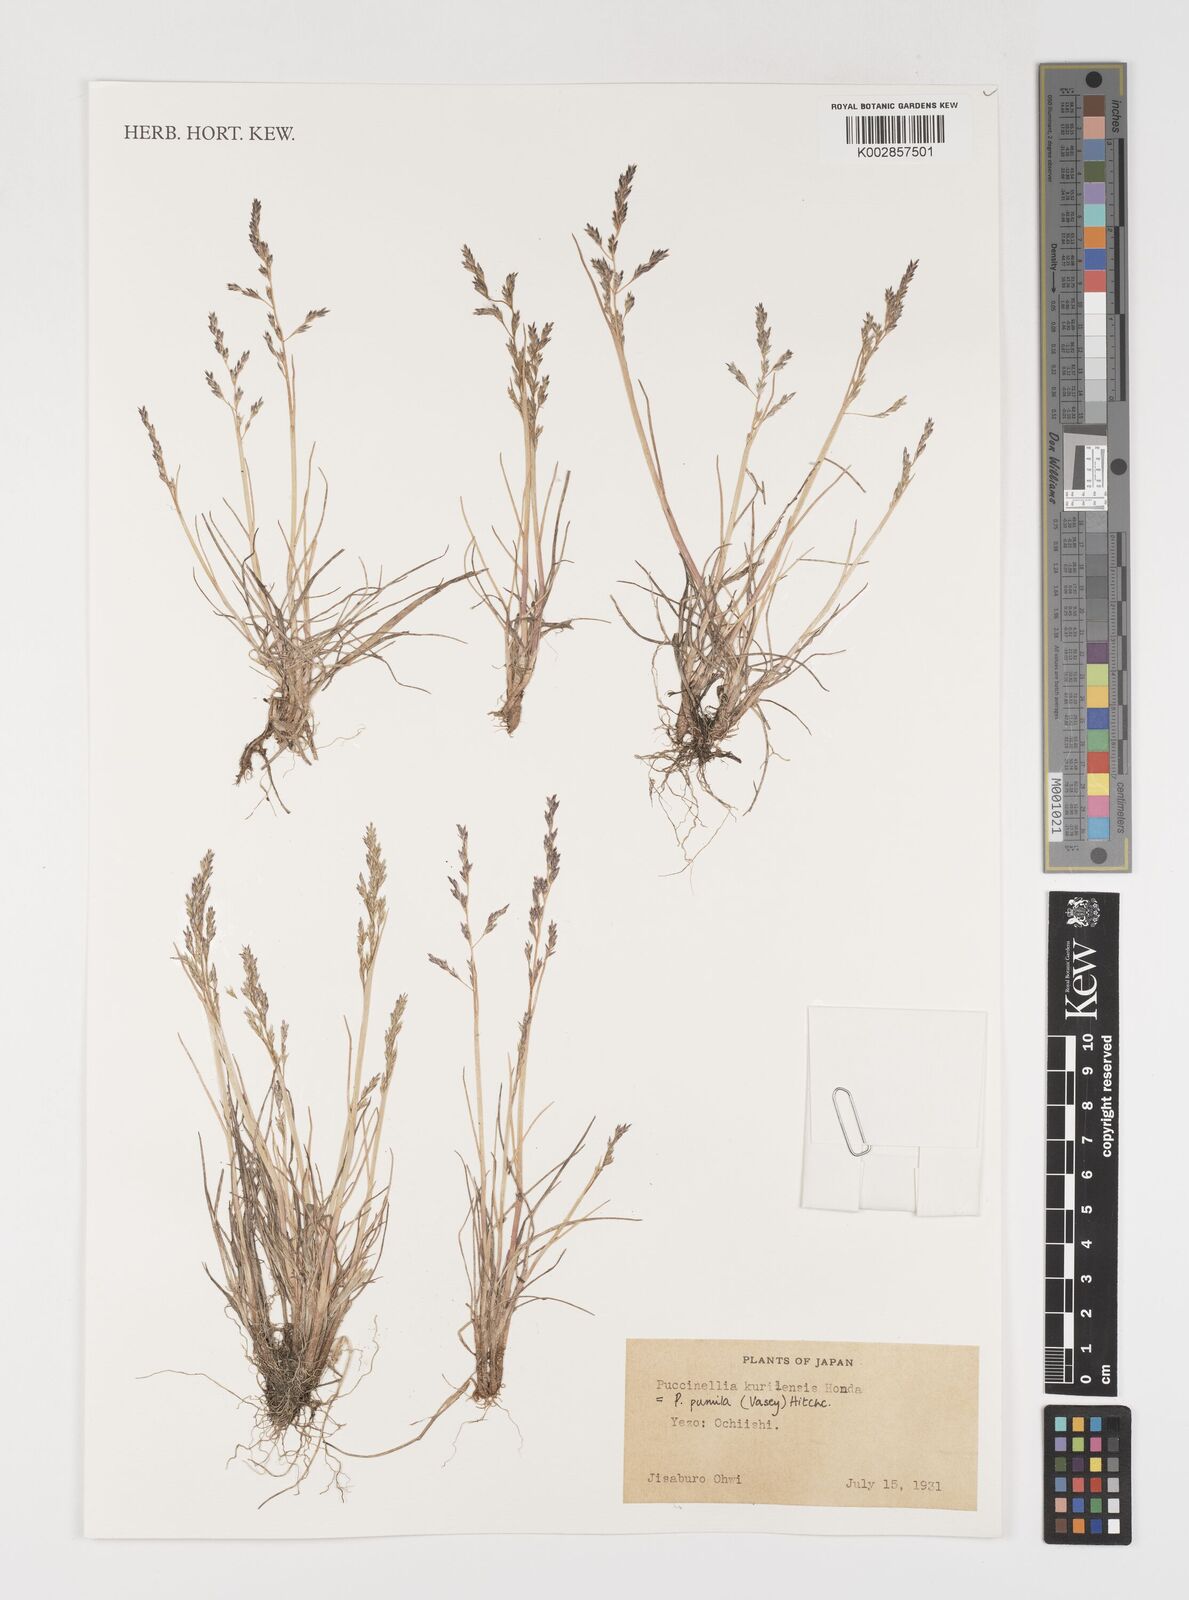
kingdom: Plantae
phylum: Tracheophyta
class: Liliopsida
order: Poales
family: Poaceae
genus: Puccinellia
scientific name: Puccinellia pumila
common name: Dwarf alkaligrass
